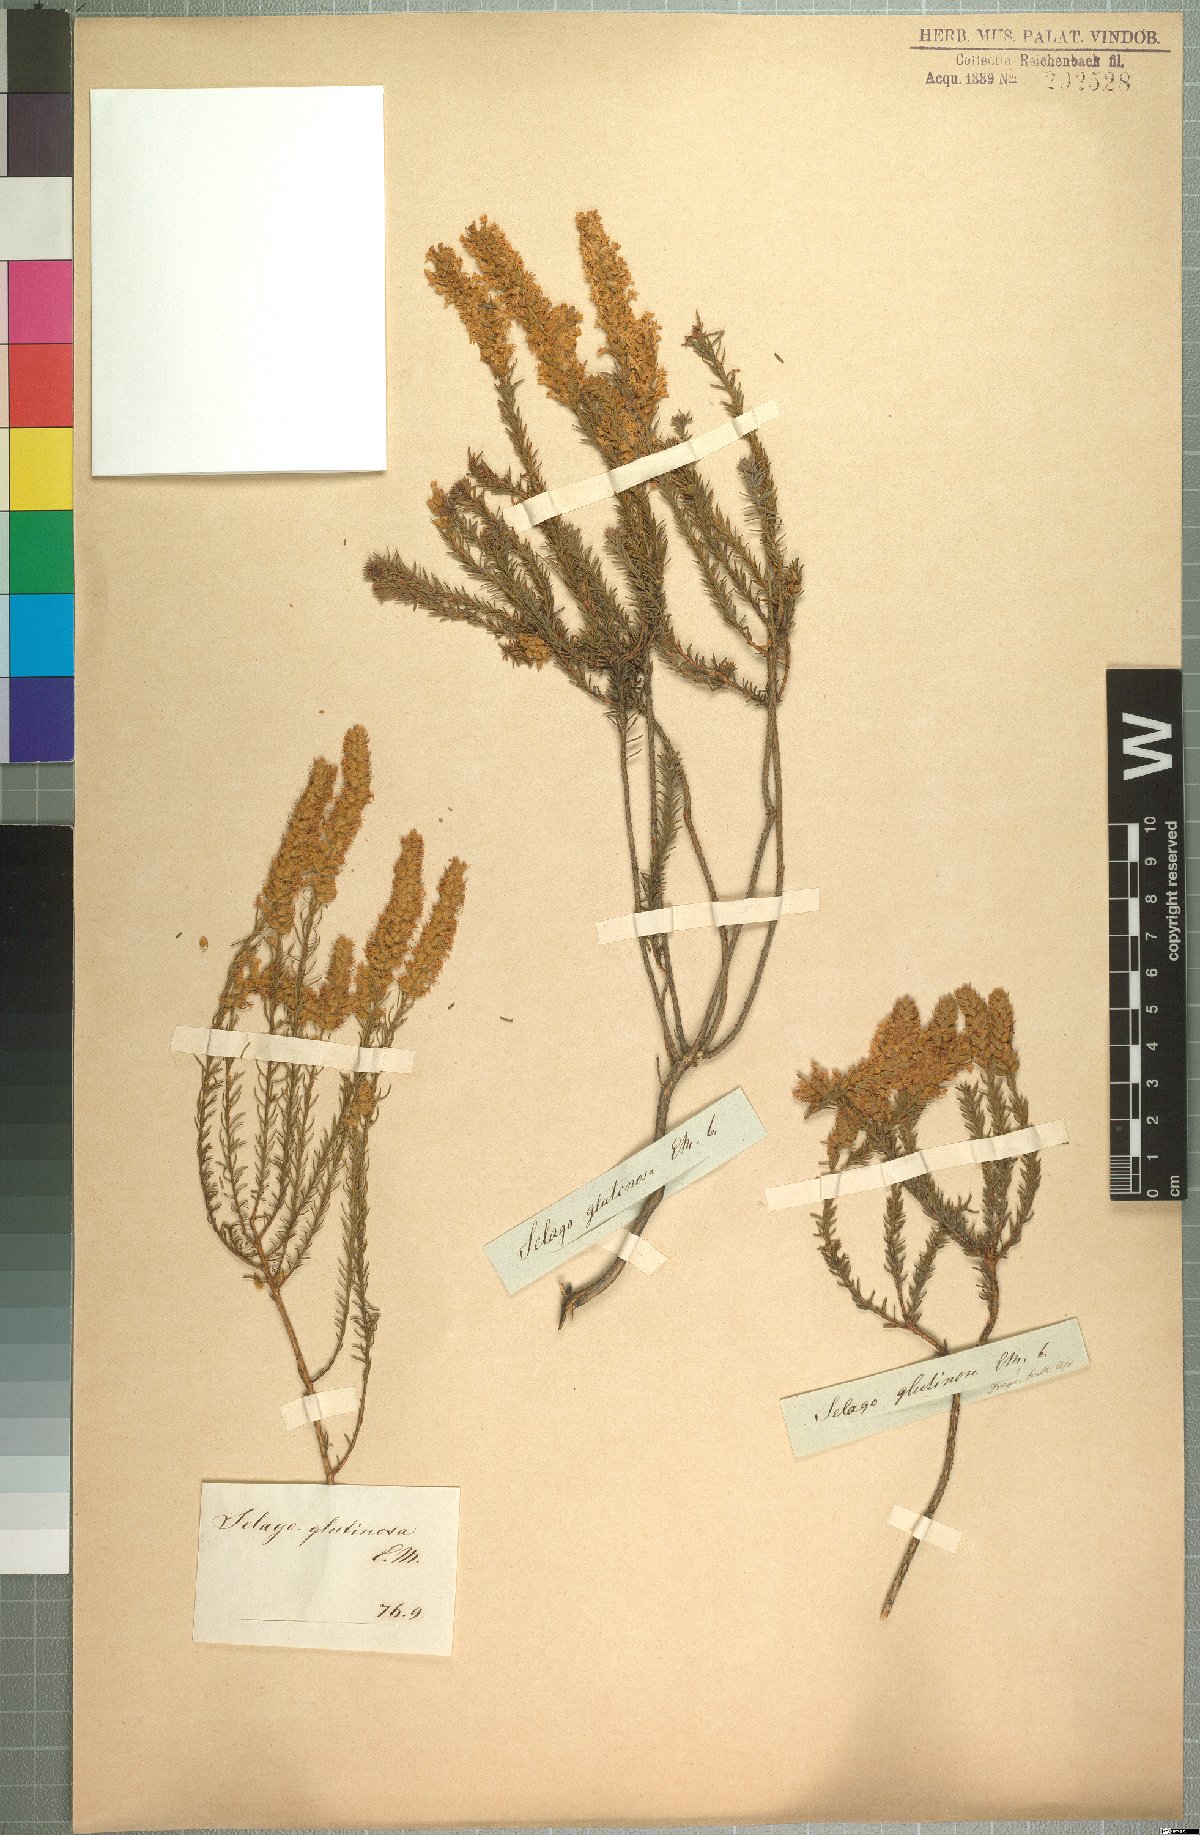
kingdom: Plantae
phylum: Tracheophyta
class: Magnoliopsida
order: Lamiales
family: Scrophulariaceae
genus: Selago
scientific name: Selago dregeana
